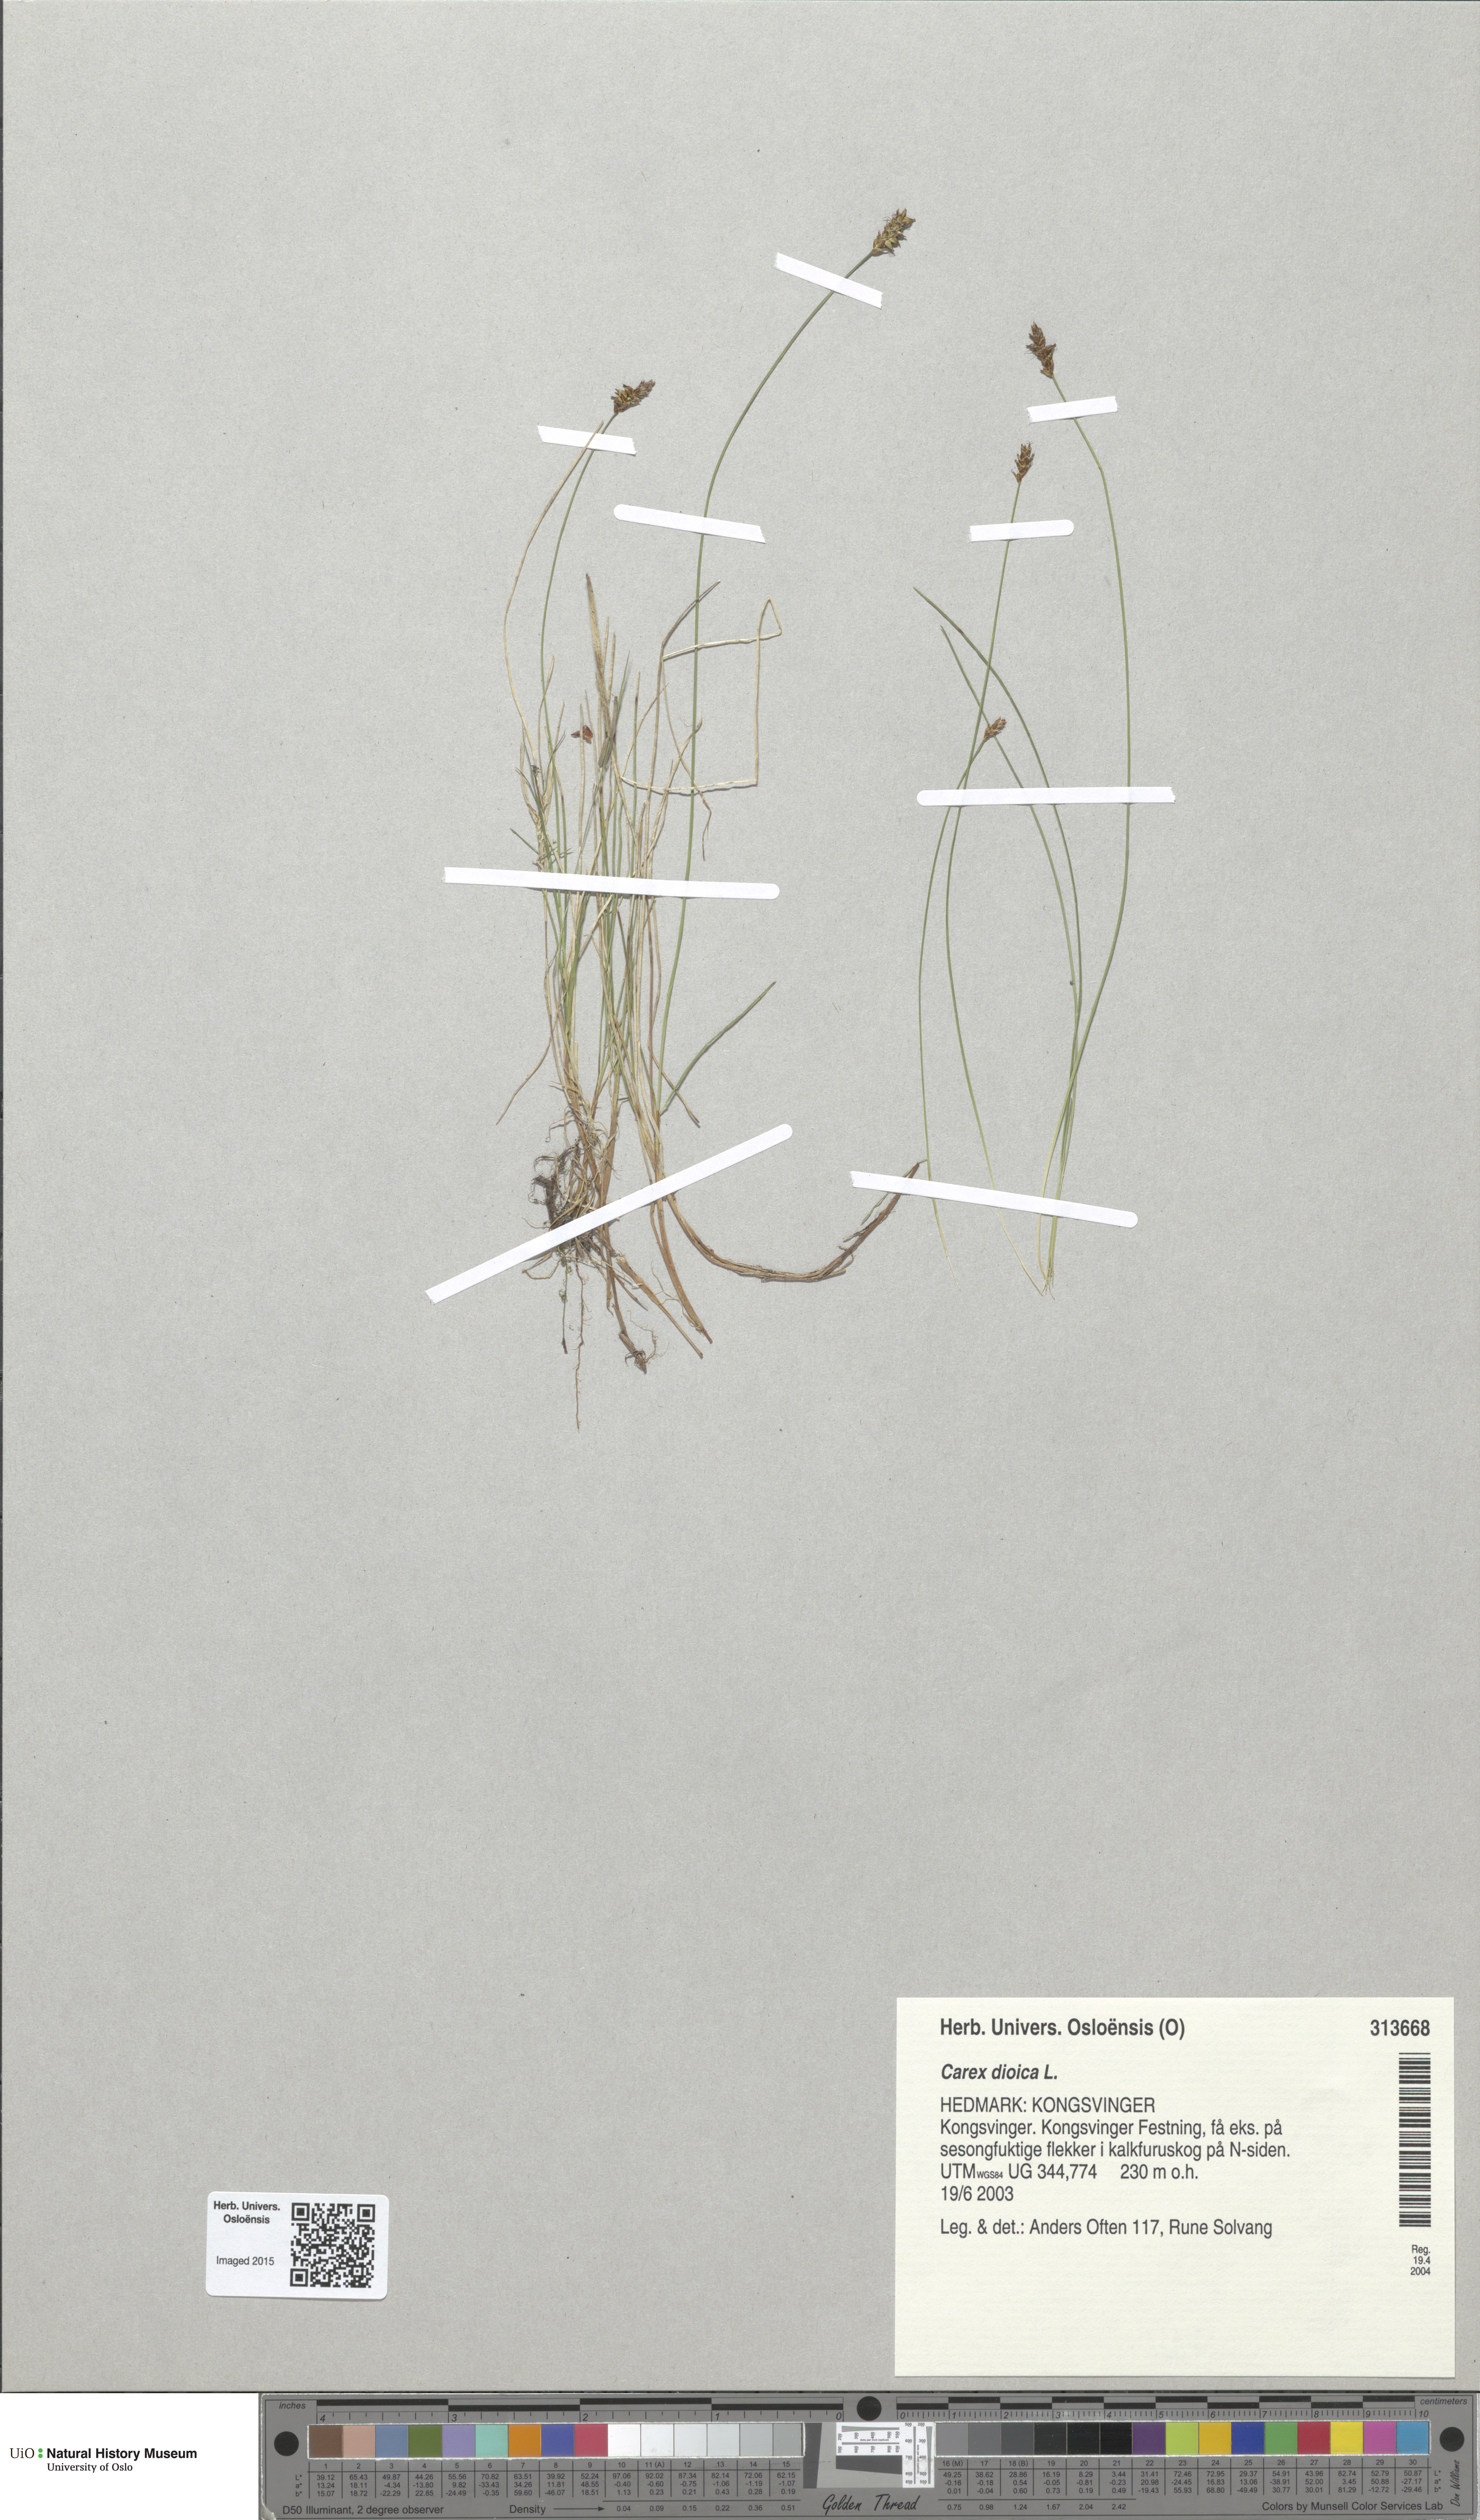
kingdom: Plantae
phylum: Tracheophyta
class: Liliopsida
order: Poales
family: Cyperaceae
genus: Carex
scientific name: Carex dioica
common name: Dioecious sedge
